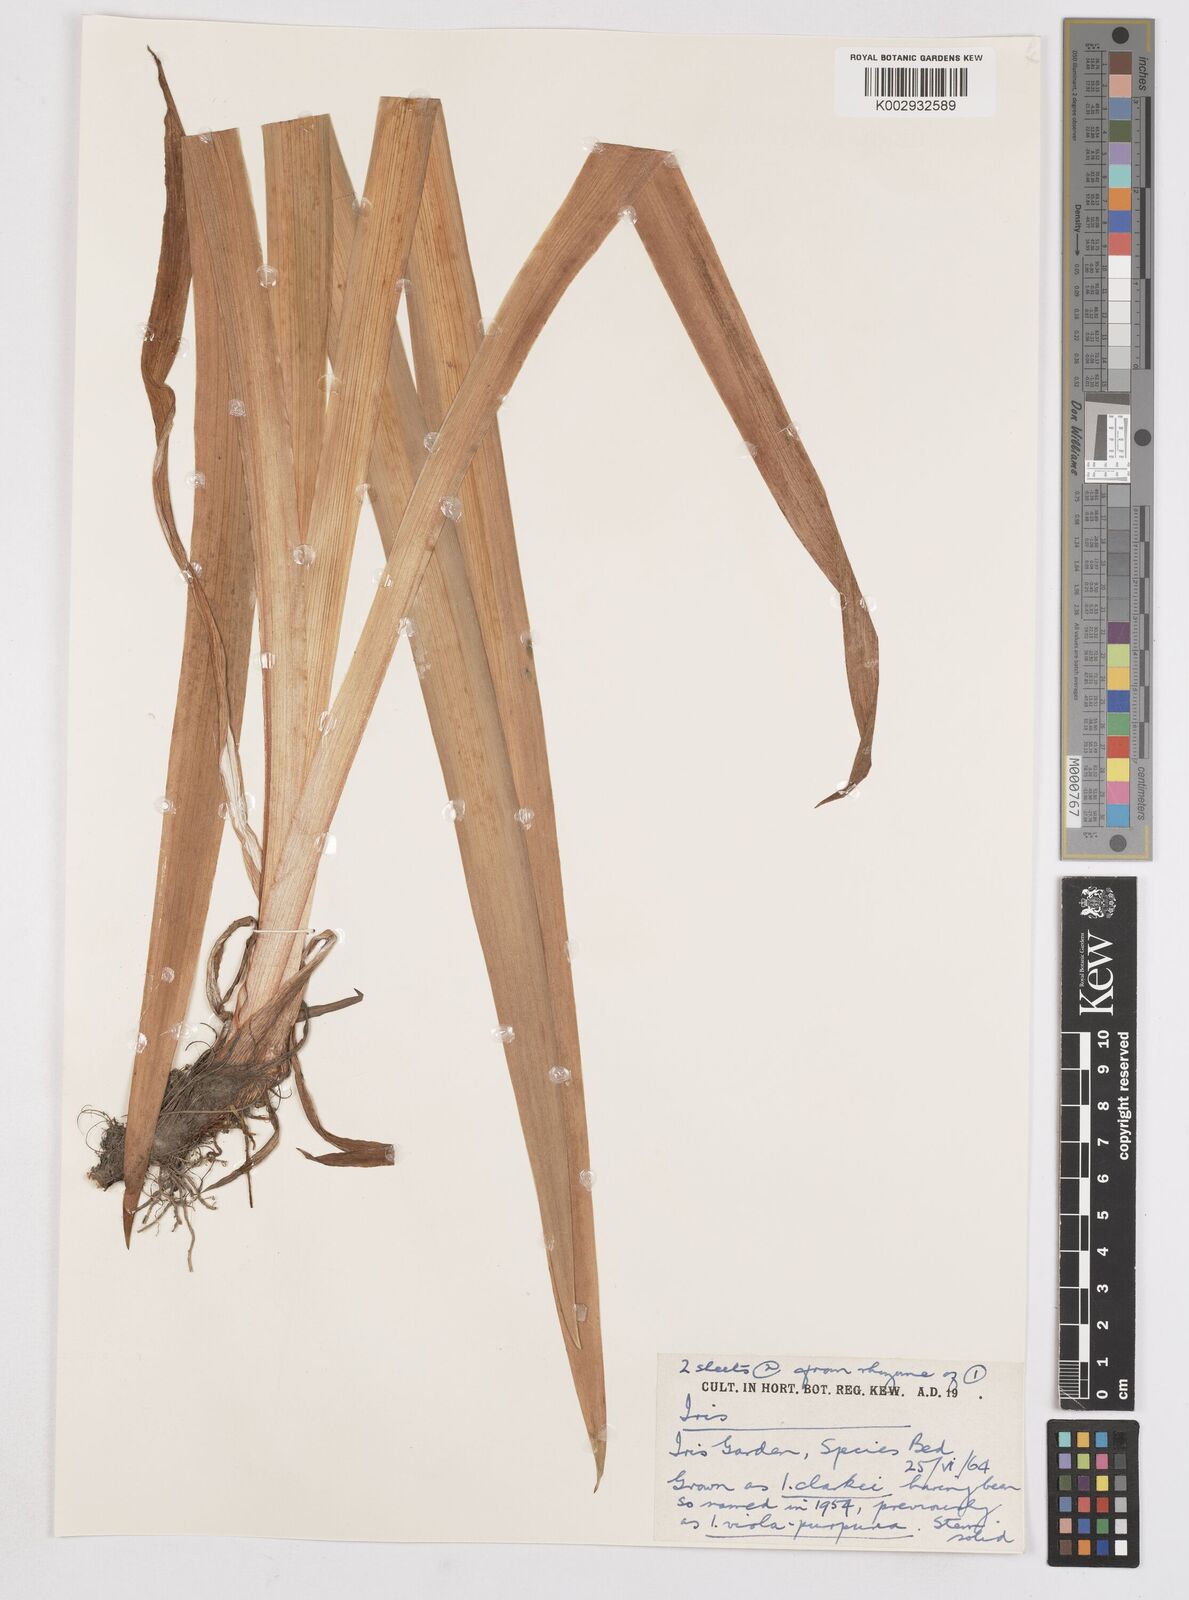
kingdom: Plantae
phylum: Tracheophyta
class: Liliopsida
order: Asparagales
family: Iridaceae
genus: Iris
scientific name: Iris clarkei
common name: Tibet iris
